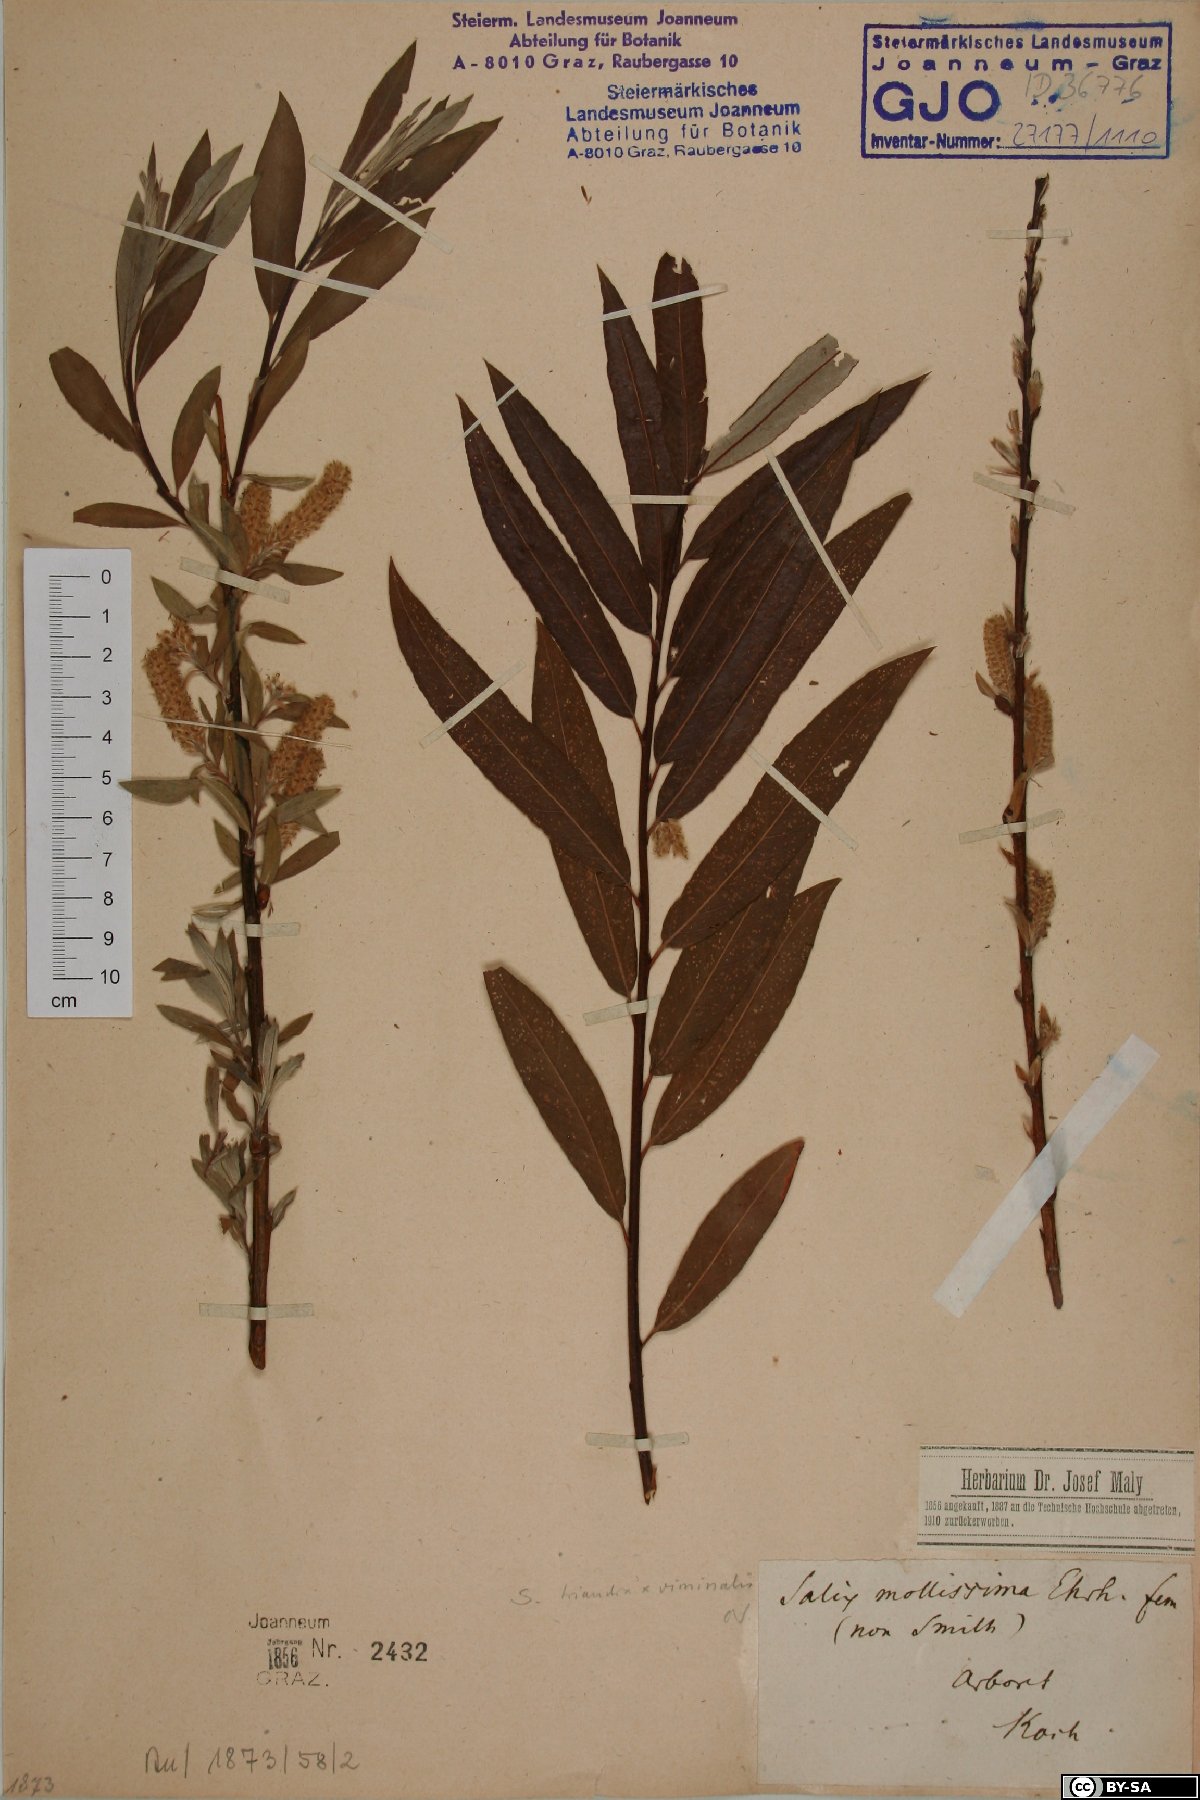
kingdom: Plantae
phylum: Tracheophyta
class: Magnoliopsida
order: Malpighiales
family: Salicaceae
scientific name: Salicaceae
